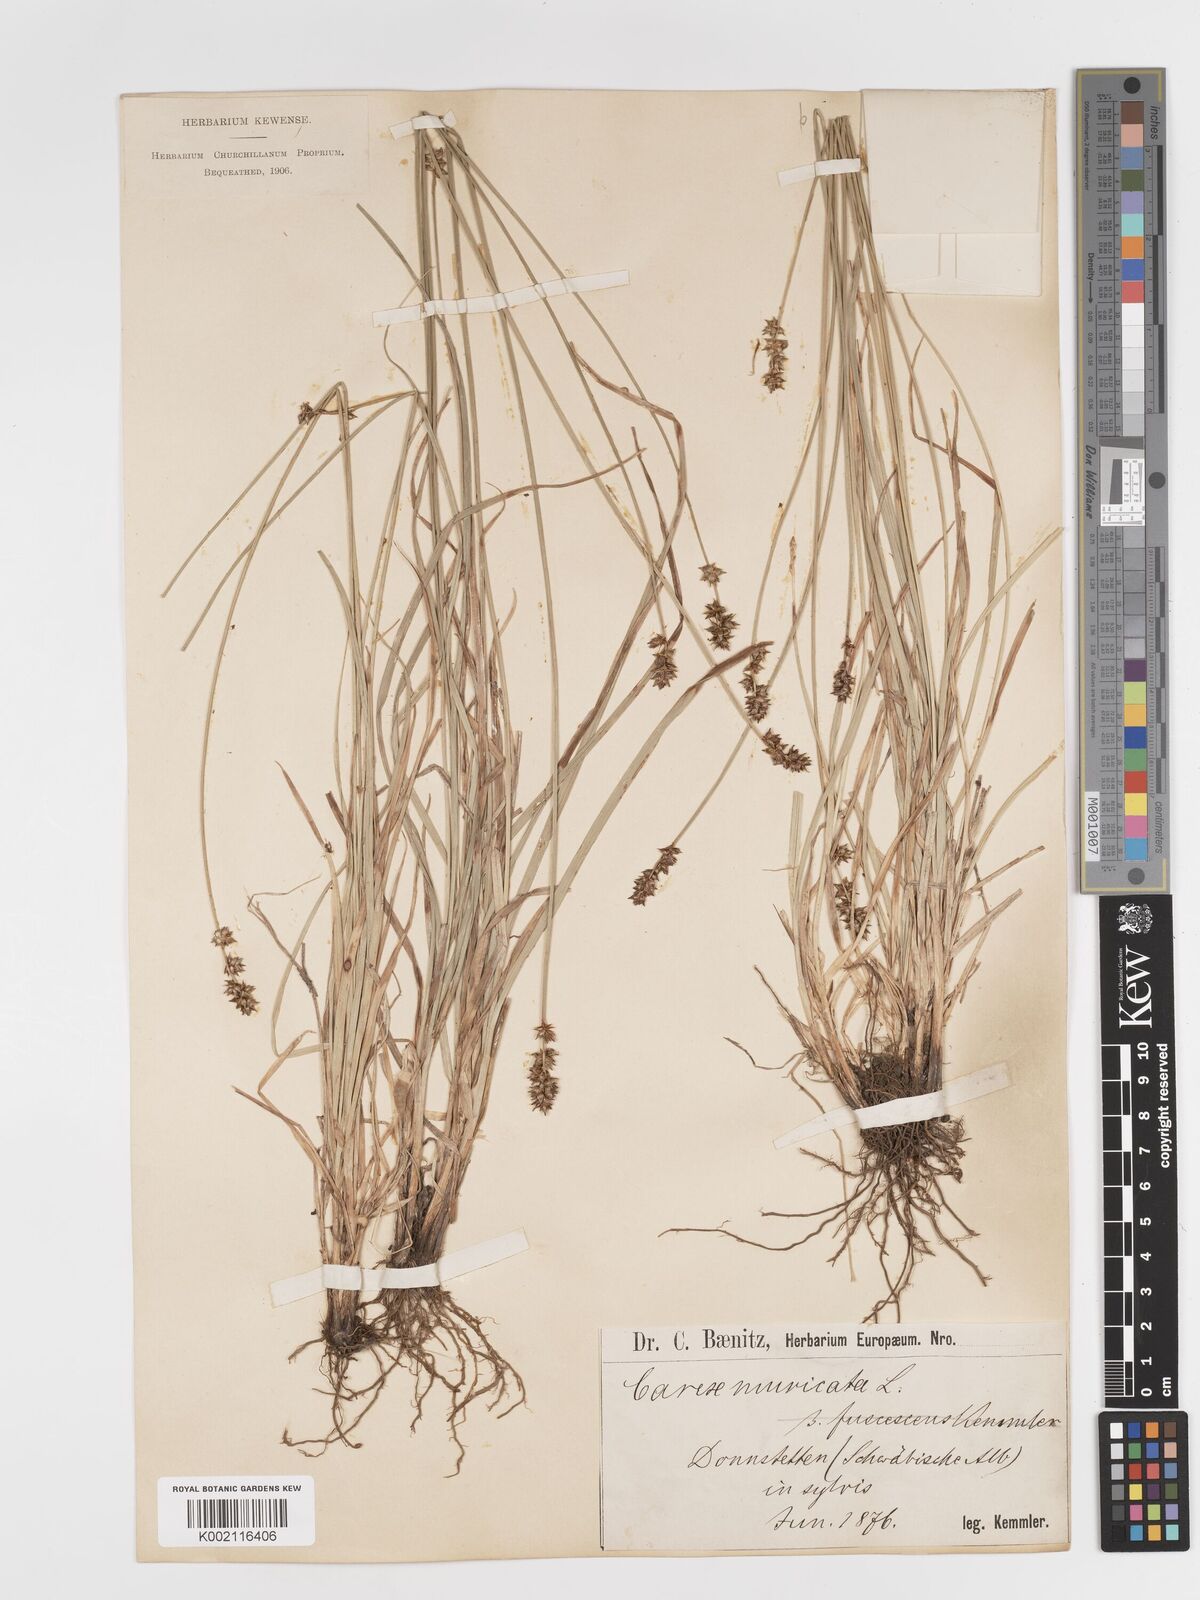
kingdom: Plantae
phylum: Tracheophyta
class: Liliopsida
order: Poales
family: Cyperaceae
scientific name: Cyperaceae
